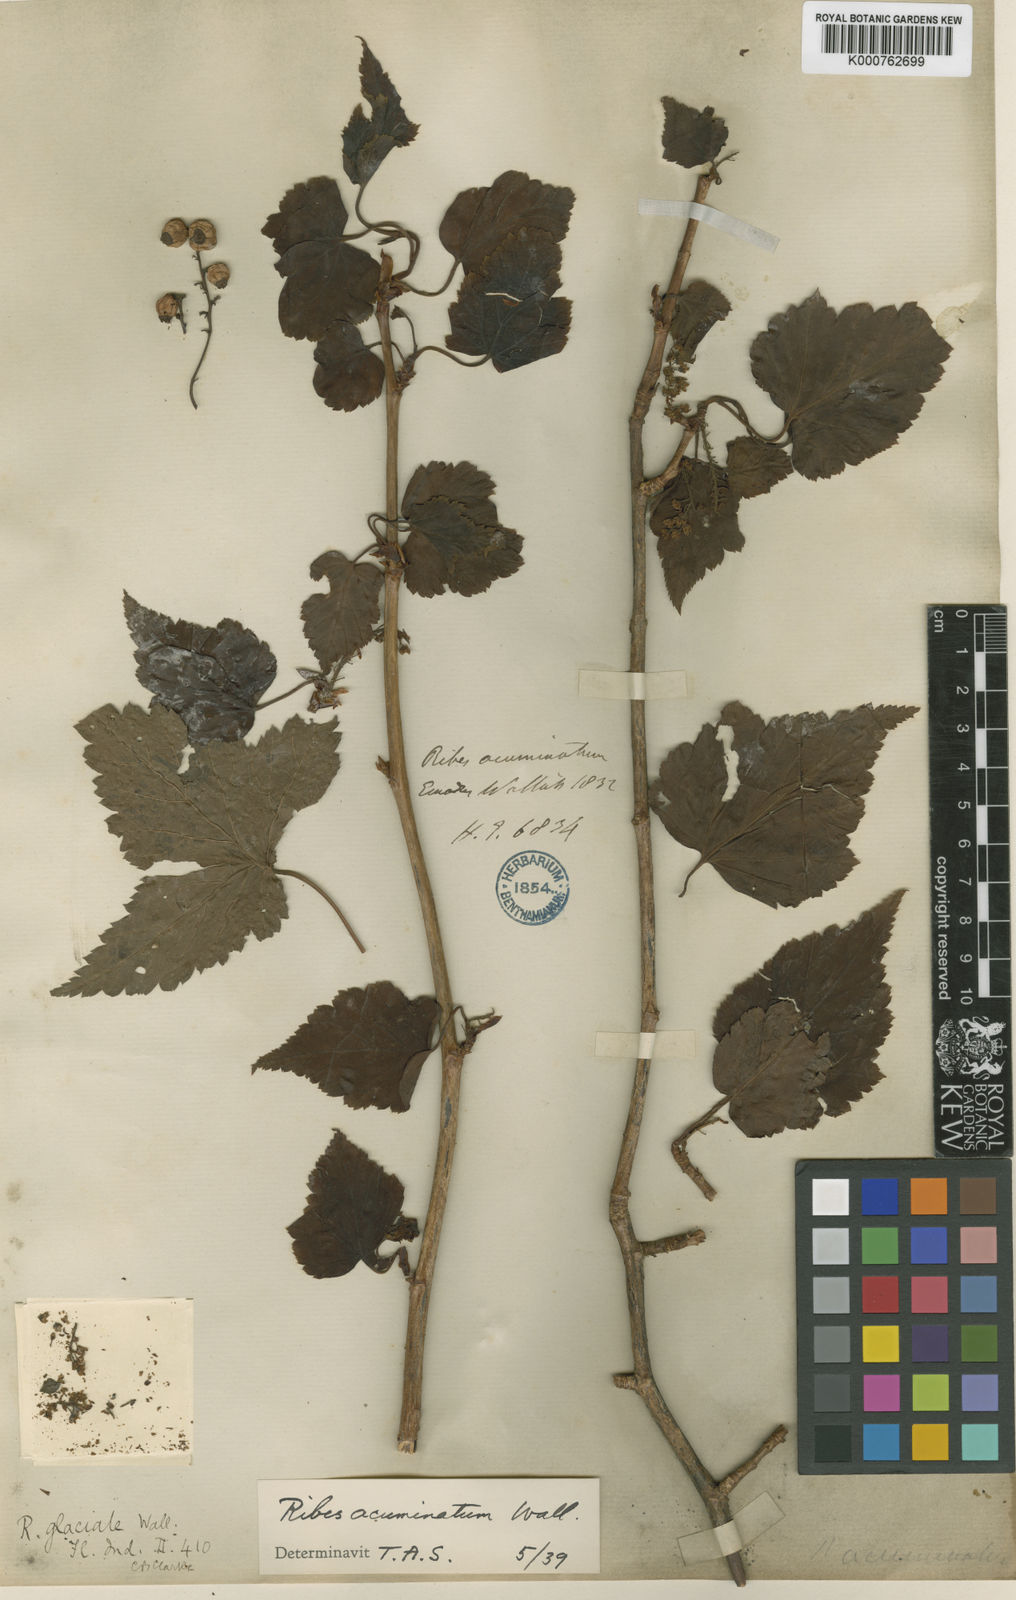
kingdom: Plantae
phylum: Tracheophyta
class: Magnoliopsida
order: Saxifragales
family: Grossulariaceae
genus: Ribes
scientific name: Ribes
